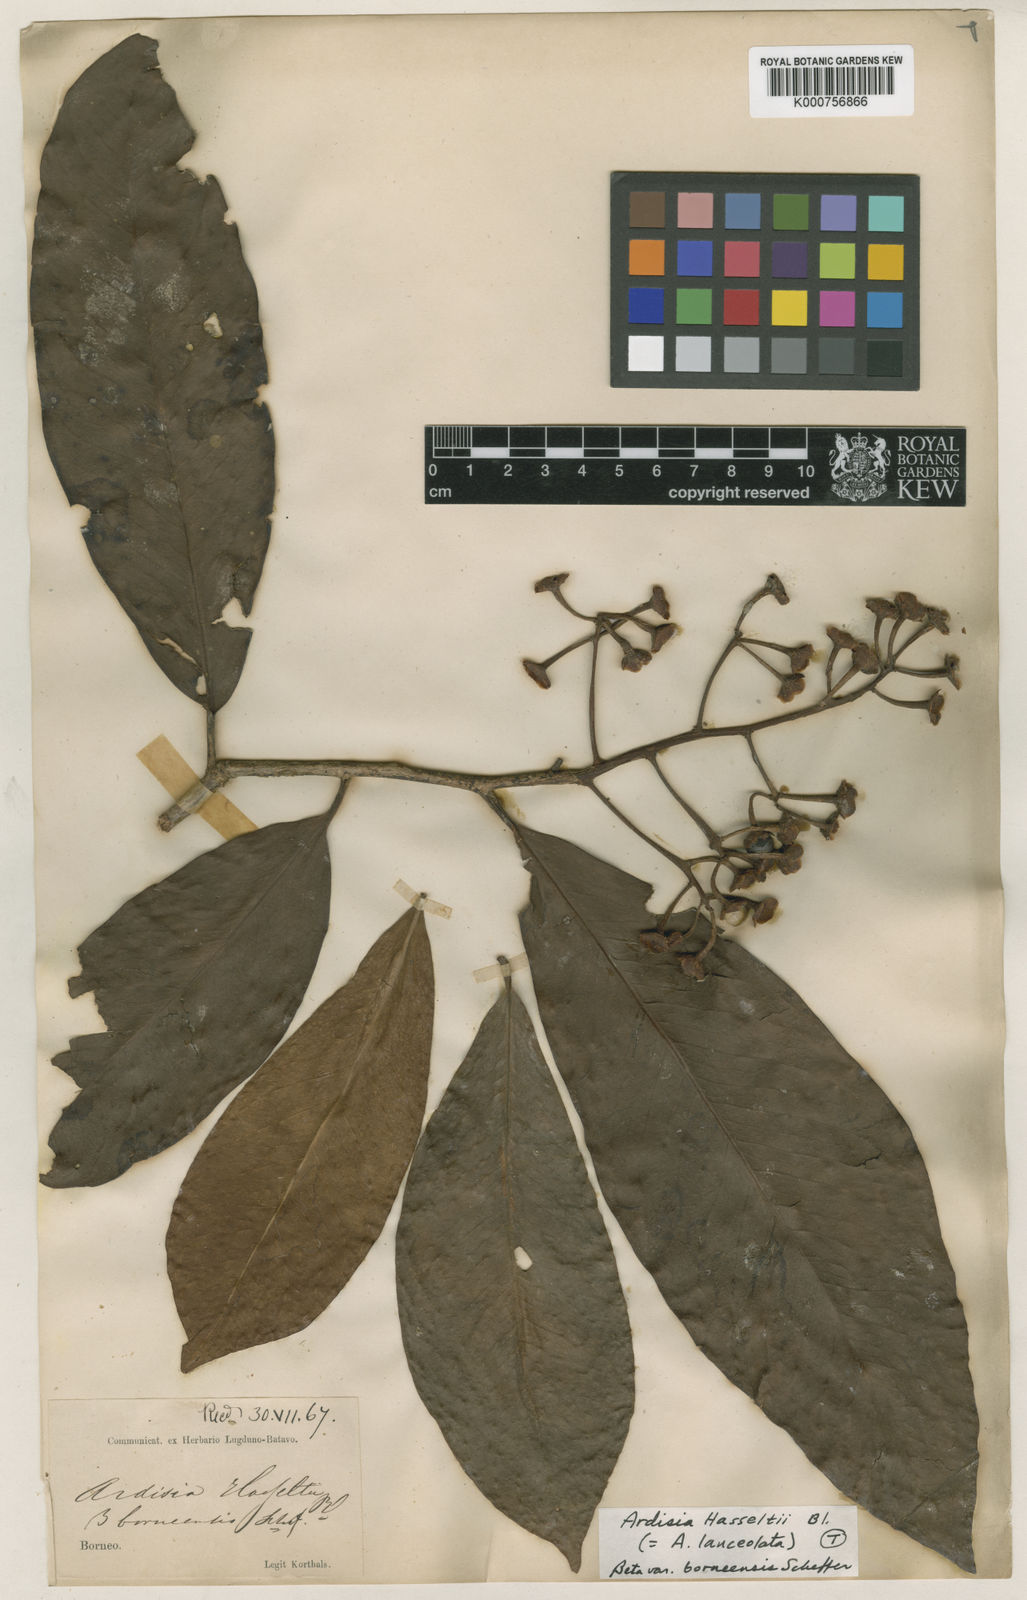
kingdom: Plantae
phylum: Tracheophyta
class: Magnoliopsida
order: Ericales
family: Primulaceae
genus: Ardisia
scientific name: Ardisia purpurea
